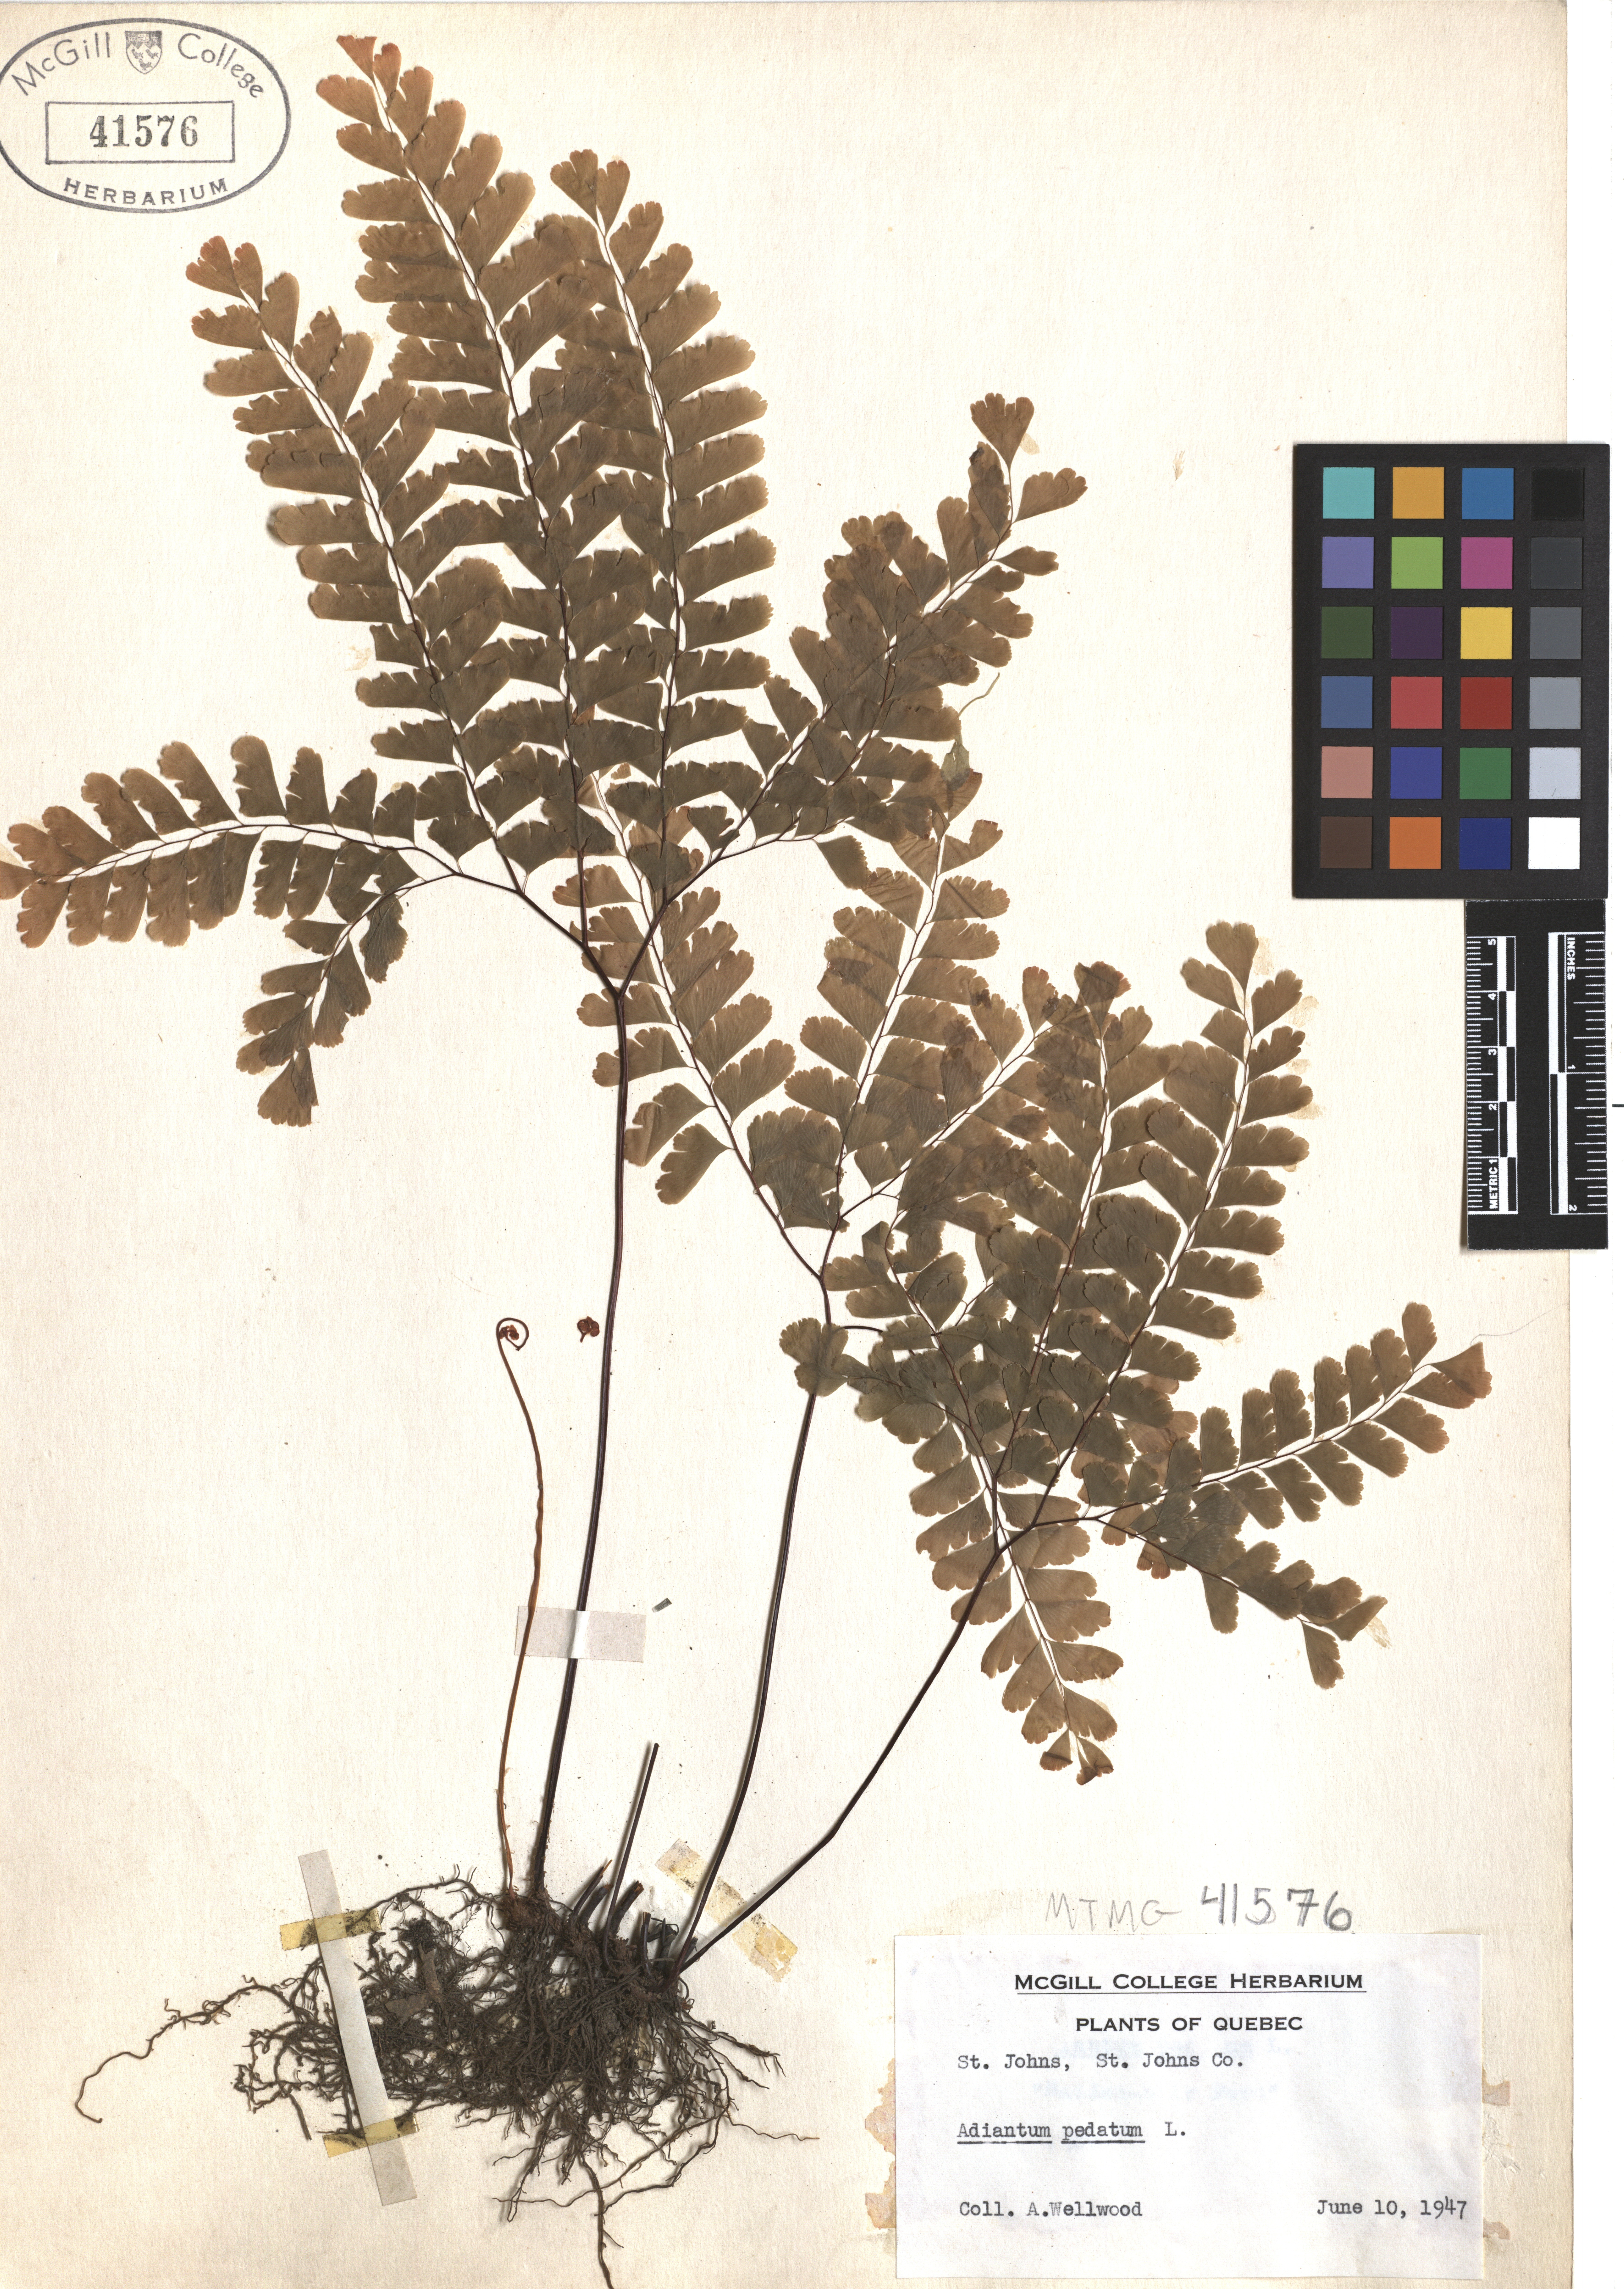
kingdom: Plantae
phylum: Tracheophyta
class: Polypodiopsida
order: Polypodiales
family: Pteridaceae
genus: Adiantum
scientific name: Adiantum pedatum
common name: Five-finger fern
